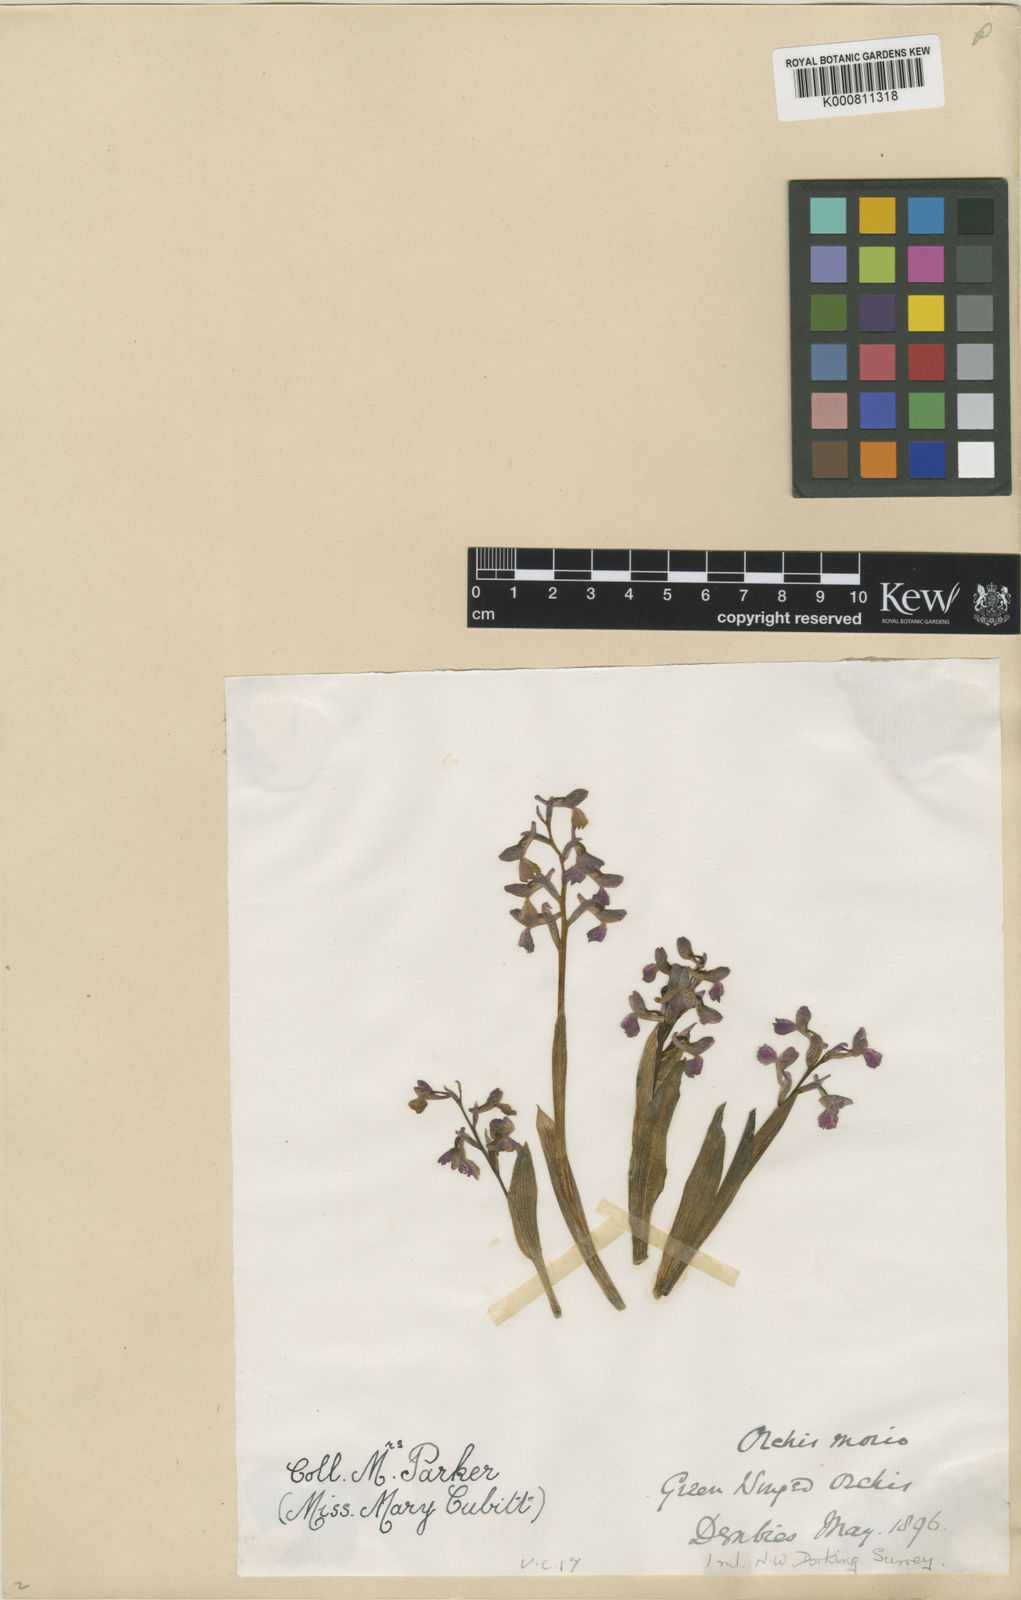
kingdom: Plantae
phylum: Tracheophyta
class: Liliopsida
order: Asparagales
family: Orchidaceae
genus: Anacamptis
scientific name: Anacamptis morio
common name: Green-winged orchid
